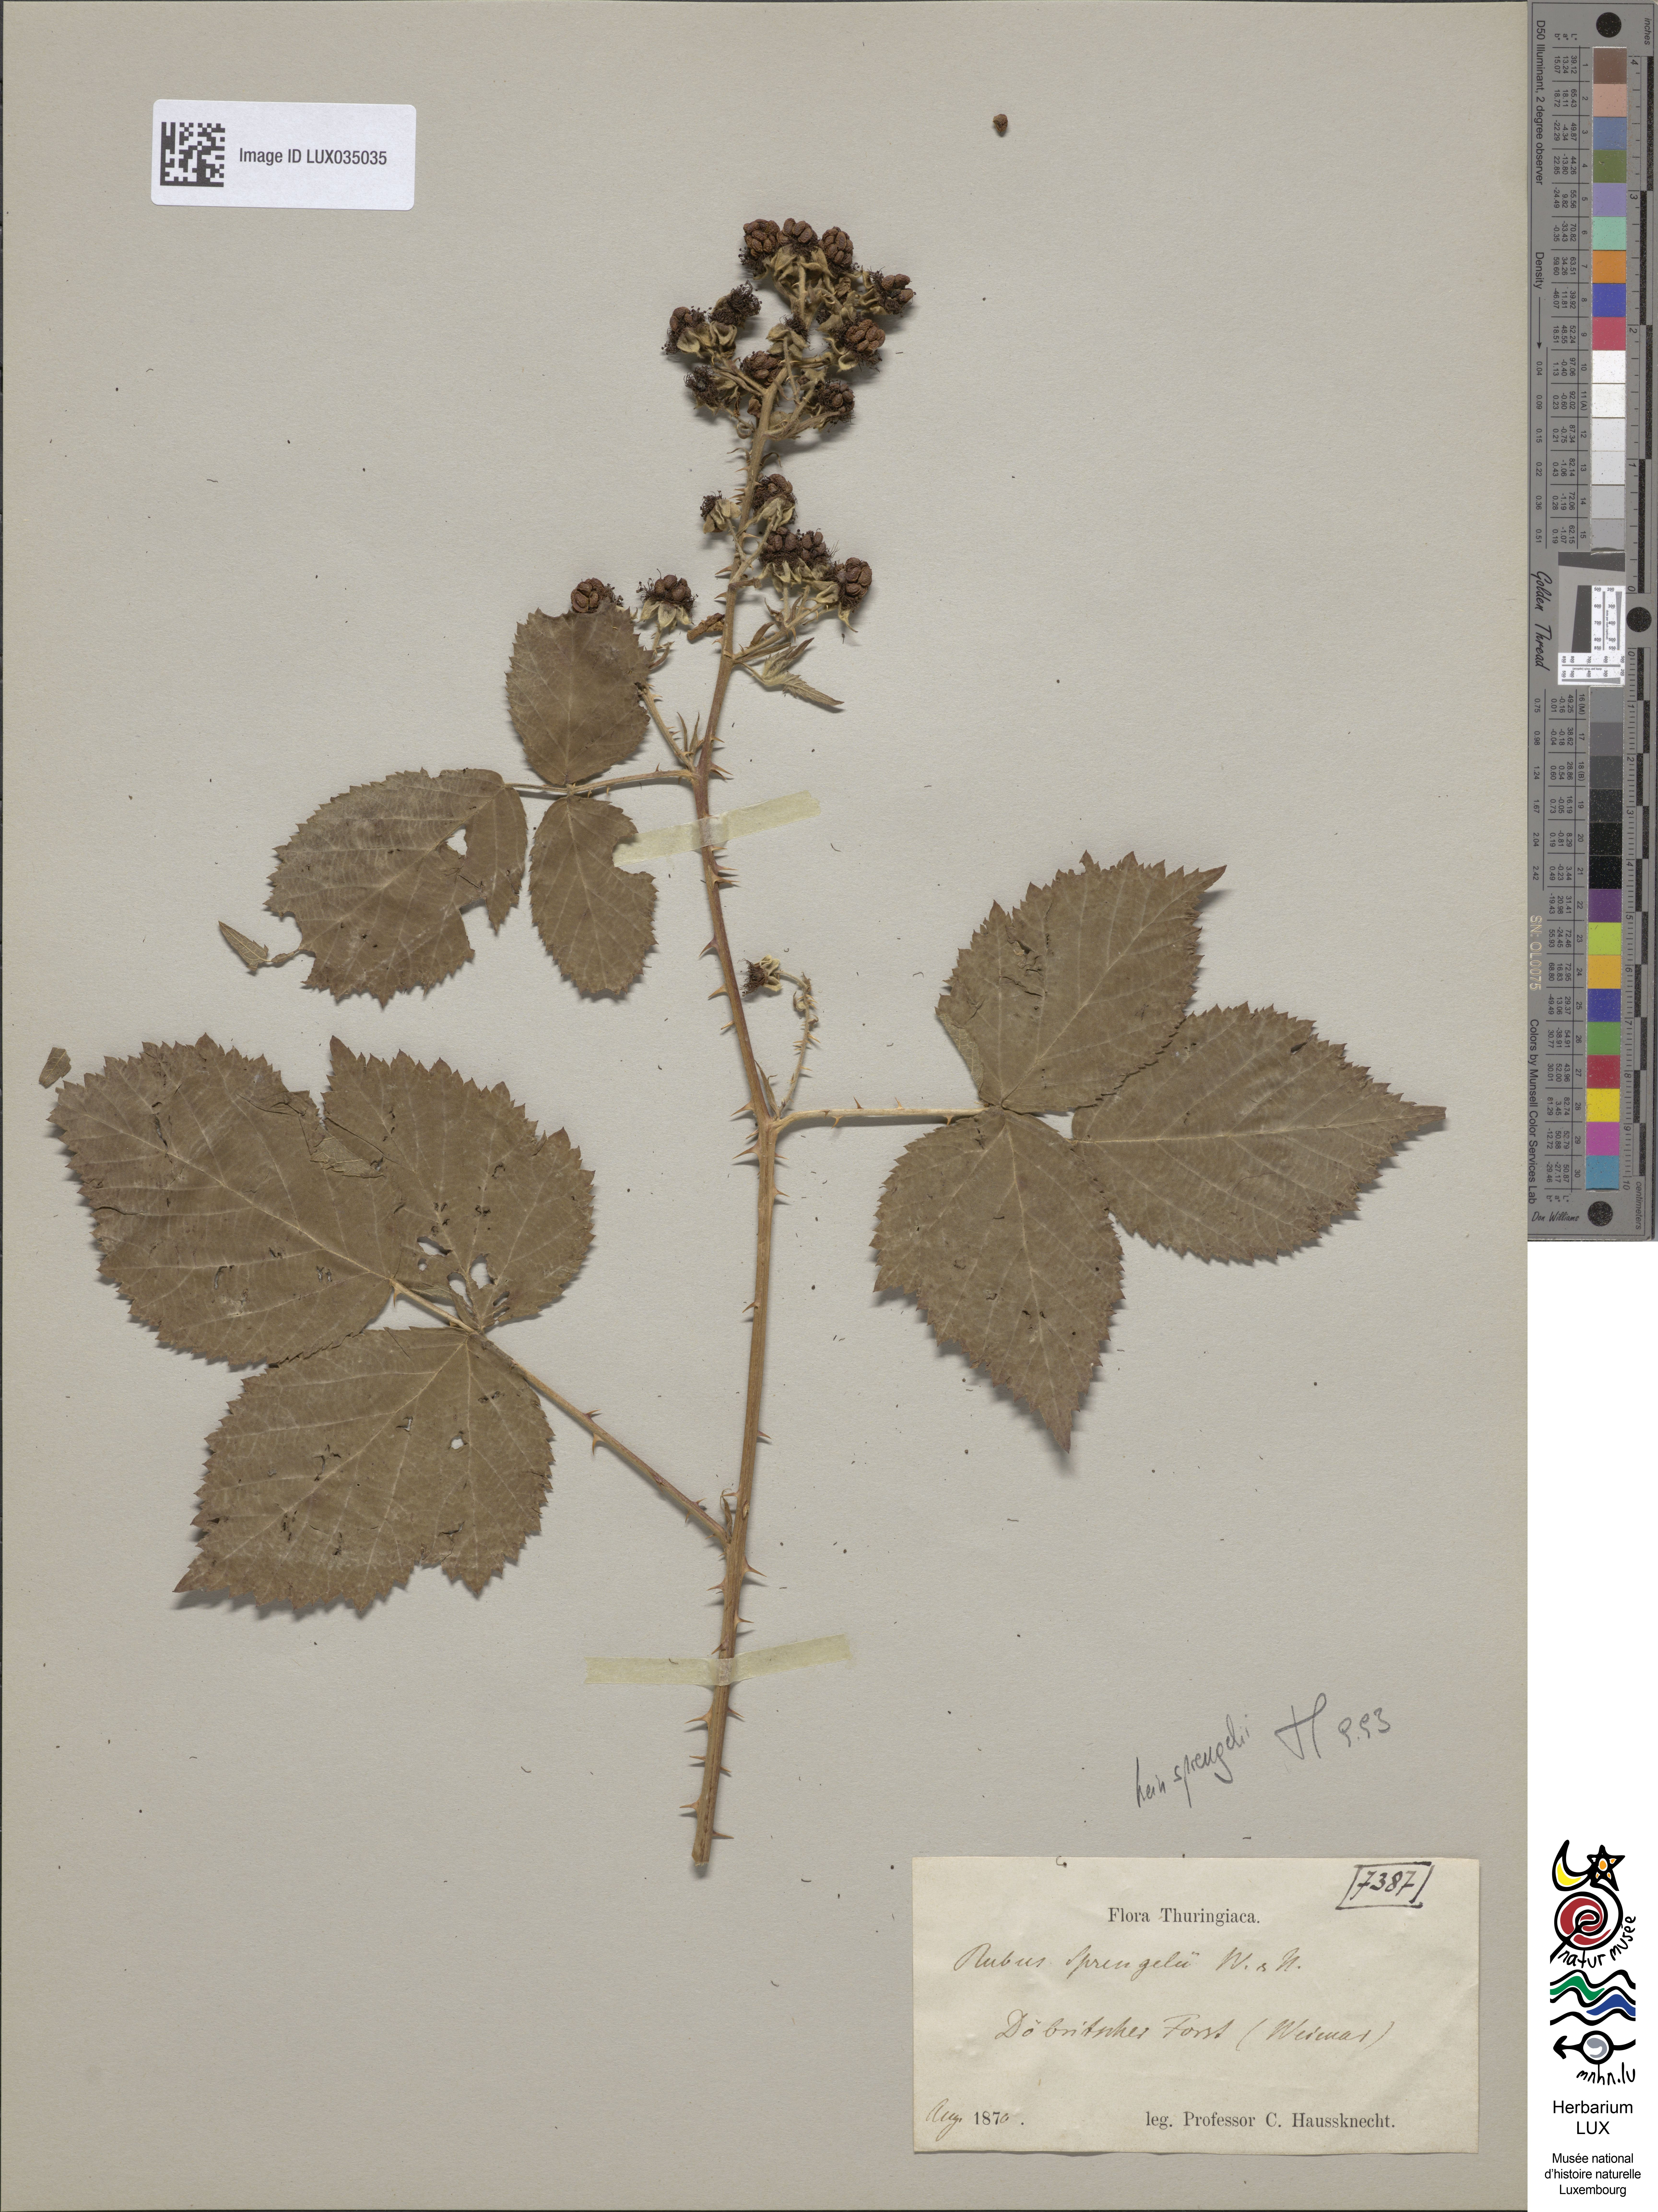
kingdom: Plantae
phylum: Tracheophyta
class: Magnoliopsida
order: Rosales
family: Rosaceae
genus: Rubus
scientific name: Rubus sprengelii
